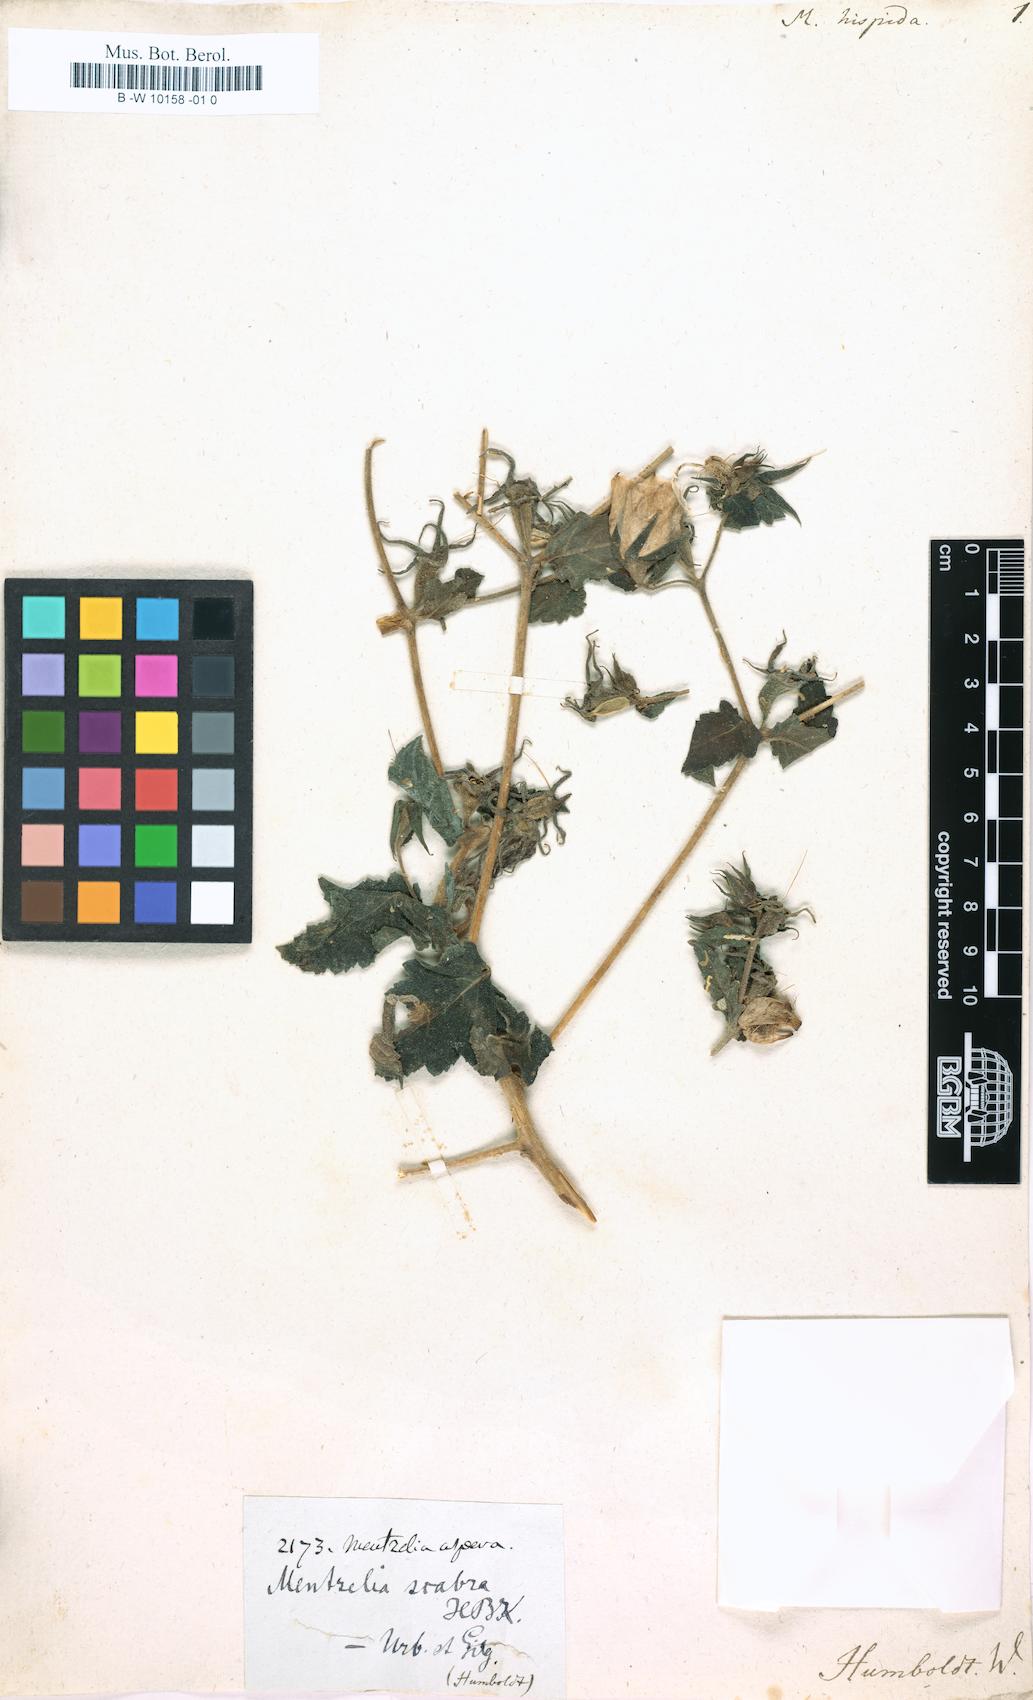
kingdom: Plantae
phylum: Tracheophyta
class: Magnoliopsida
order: Cornales
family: Loasaceae
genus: Mentzelia
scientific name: Mentzelia hispida
